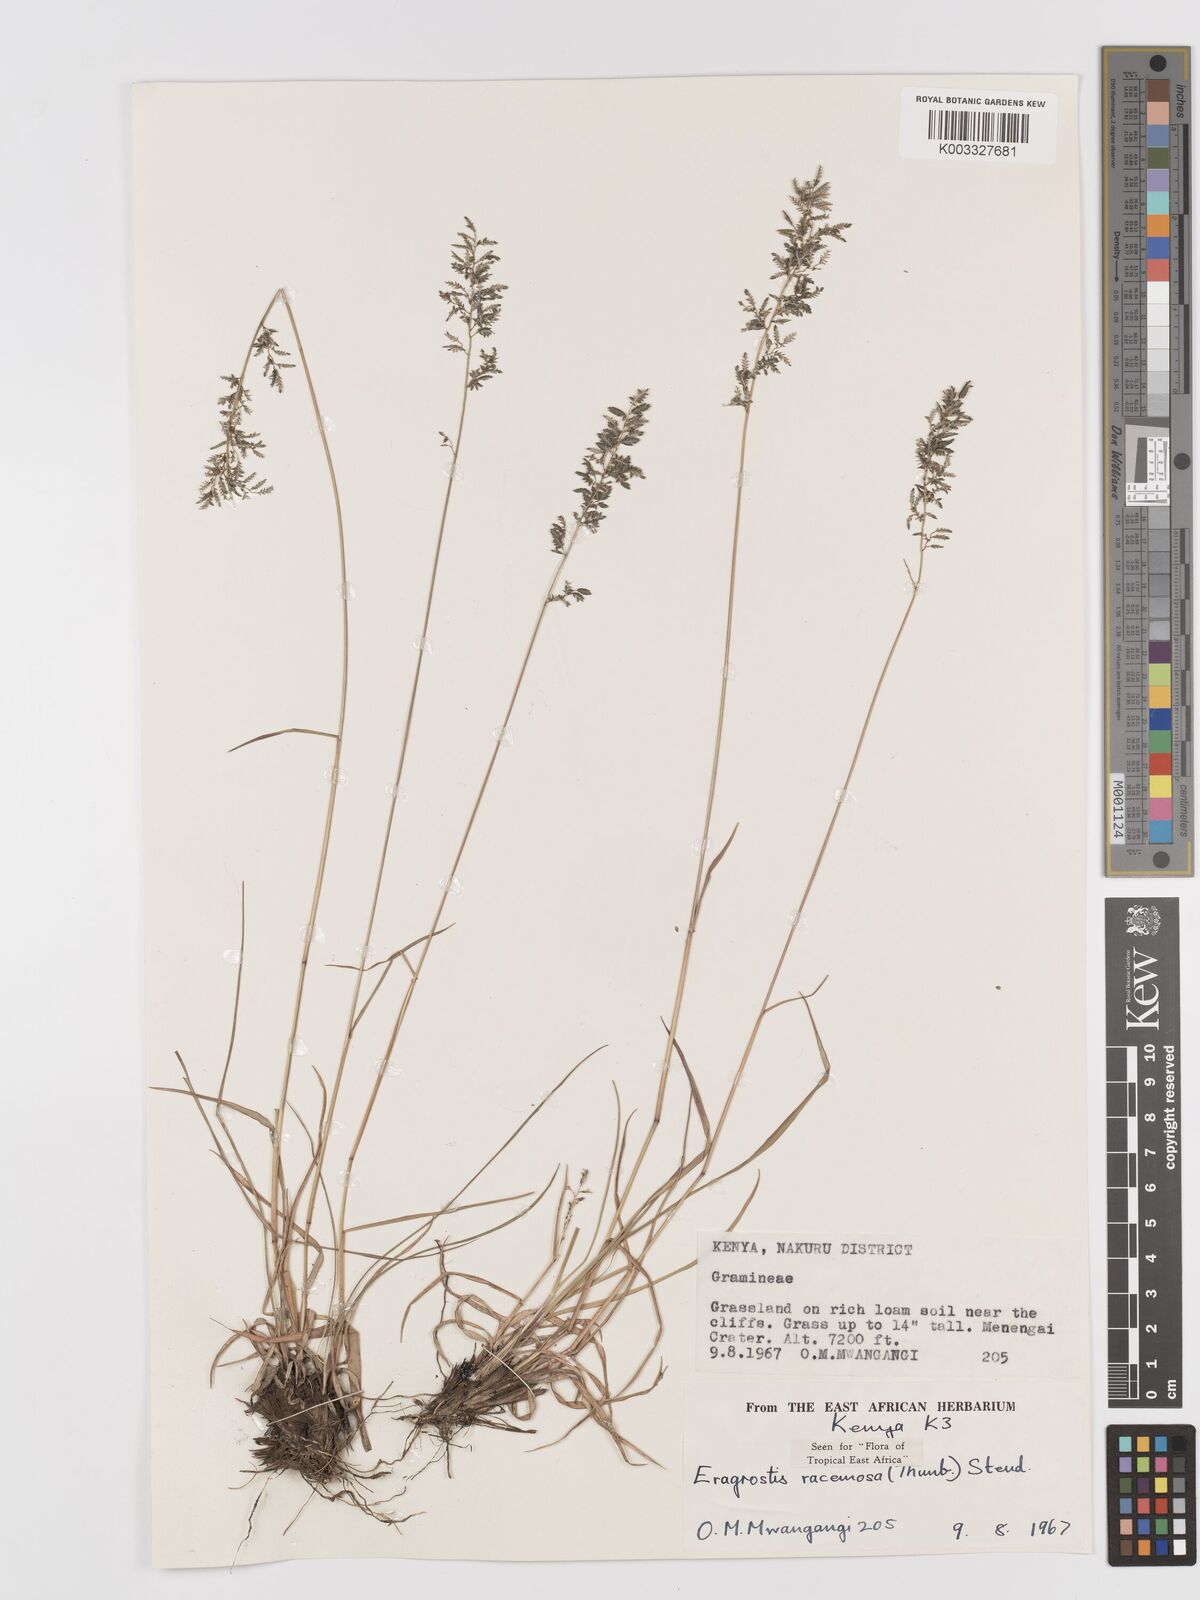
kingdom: Plantae
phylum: Tracheophyta
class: Liliopsida
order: Poales
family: Poaceae
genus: Eragrostis
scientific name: Eragrostis racemosa
